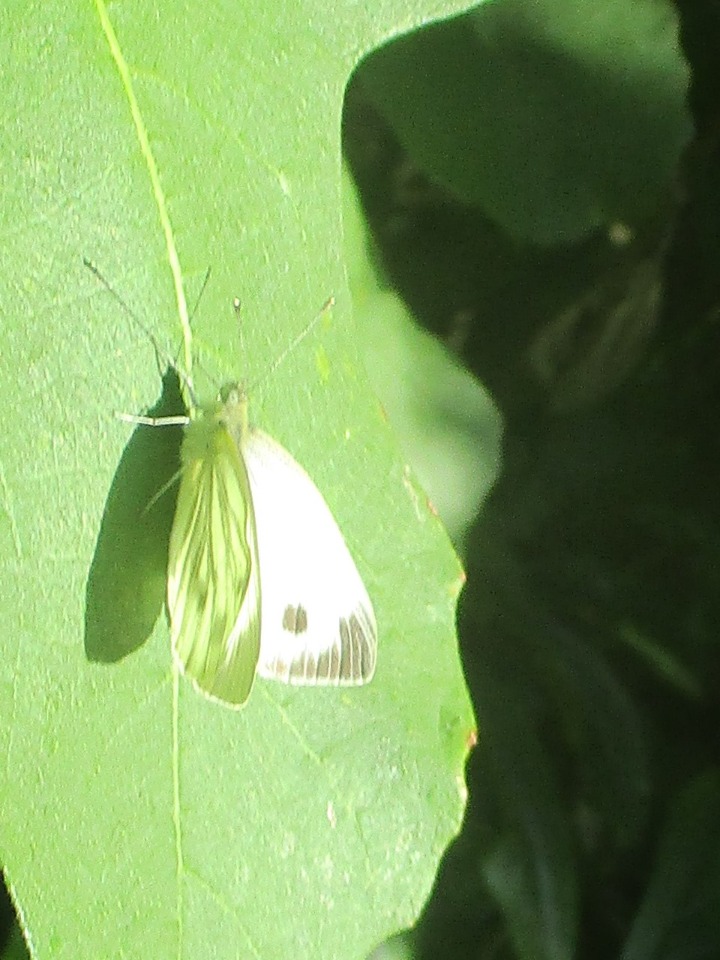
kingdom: Animalia
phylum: Arthropoda
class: Insecta
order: Lepidoptera
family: Pieridae
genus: Pieris
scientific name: Pieris napi
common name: Grønåret kålsommerfugl
